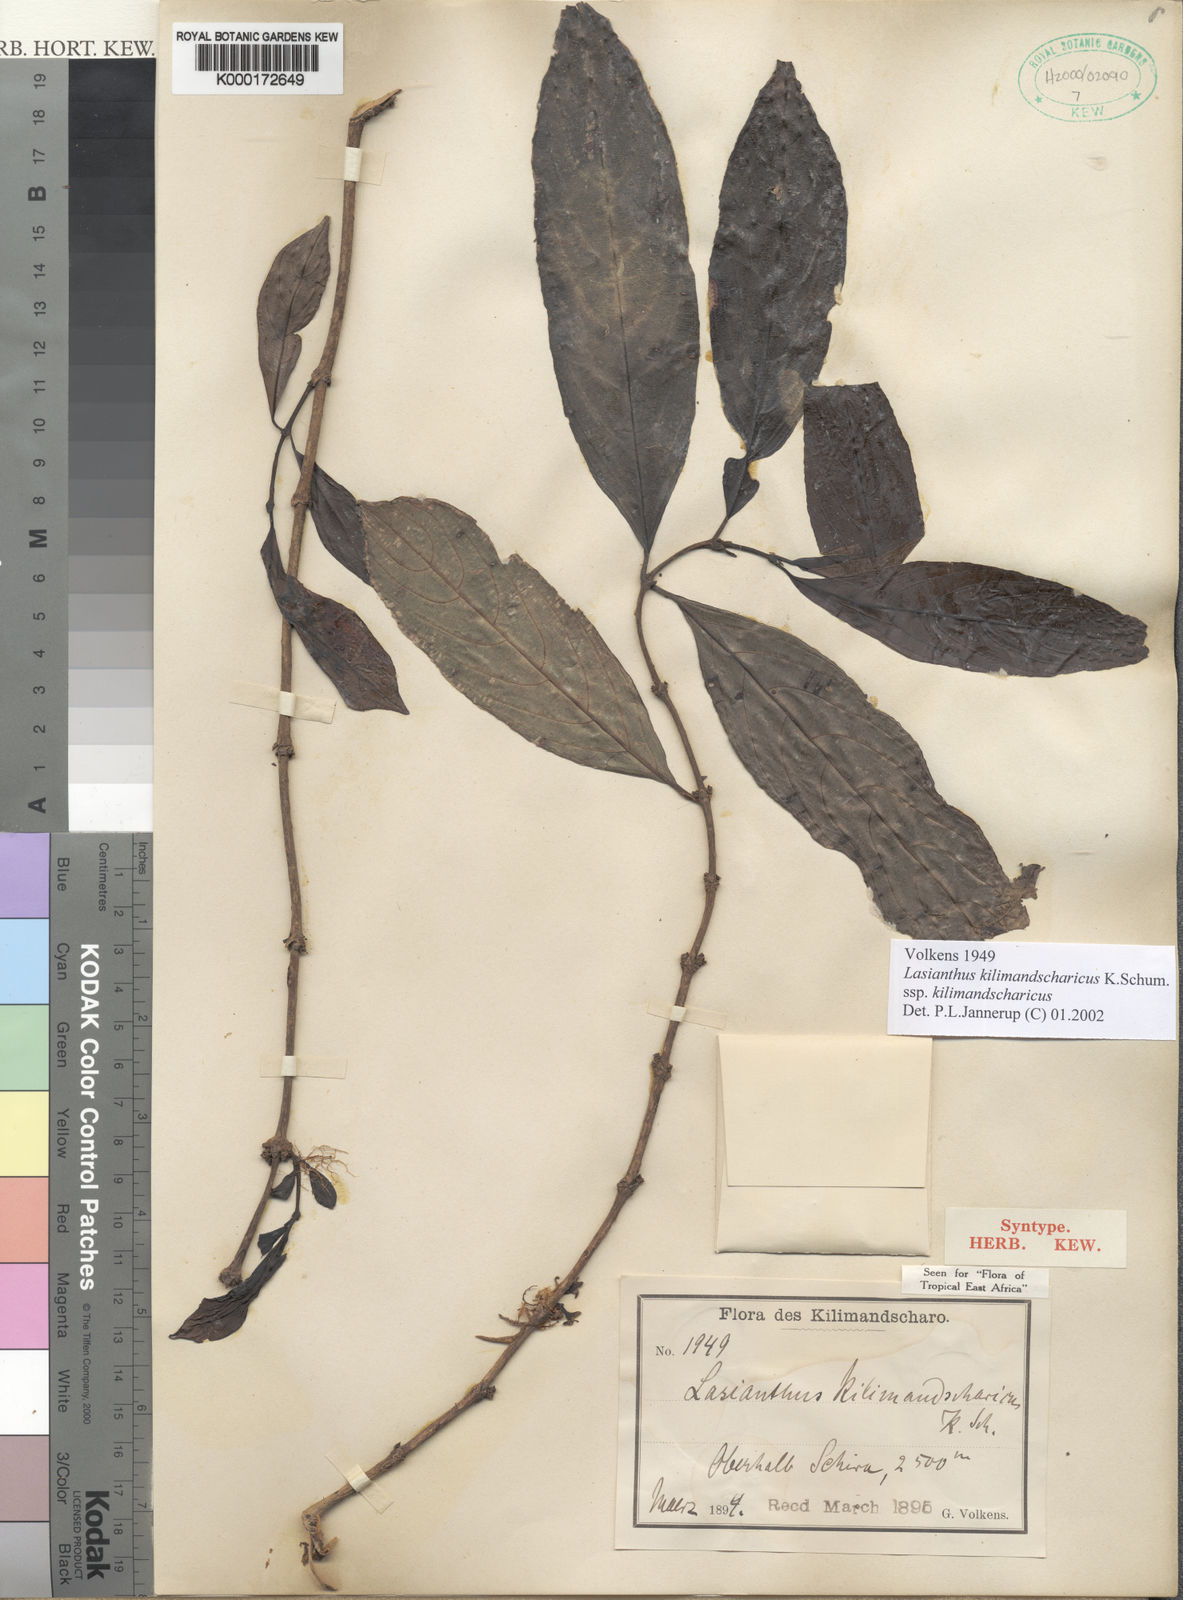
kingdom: Plantae
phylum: Tracheophyta
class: Magnoliopsida
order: Gentianales
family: Rubiaceae
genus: Lasianthus
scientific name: Lasianthus kilimandscharicus
